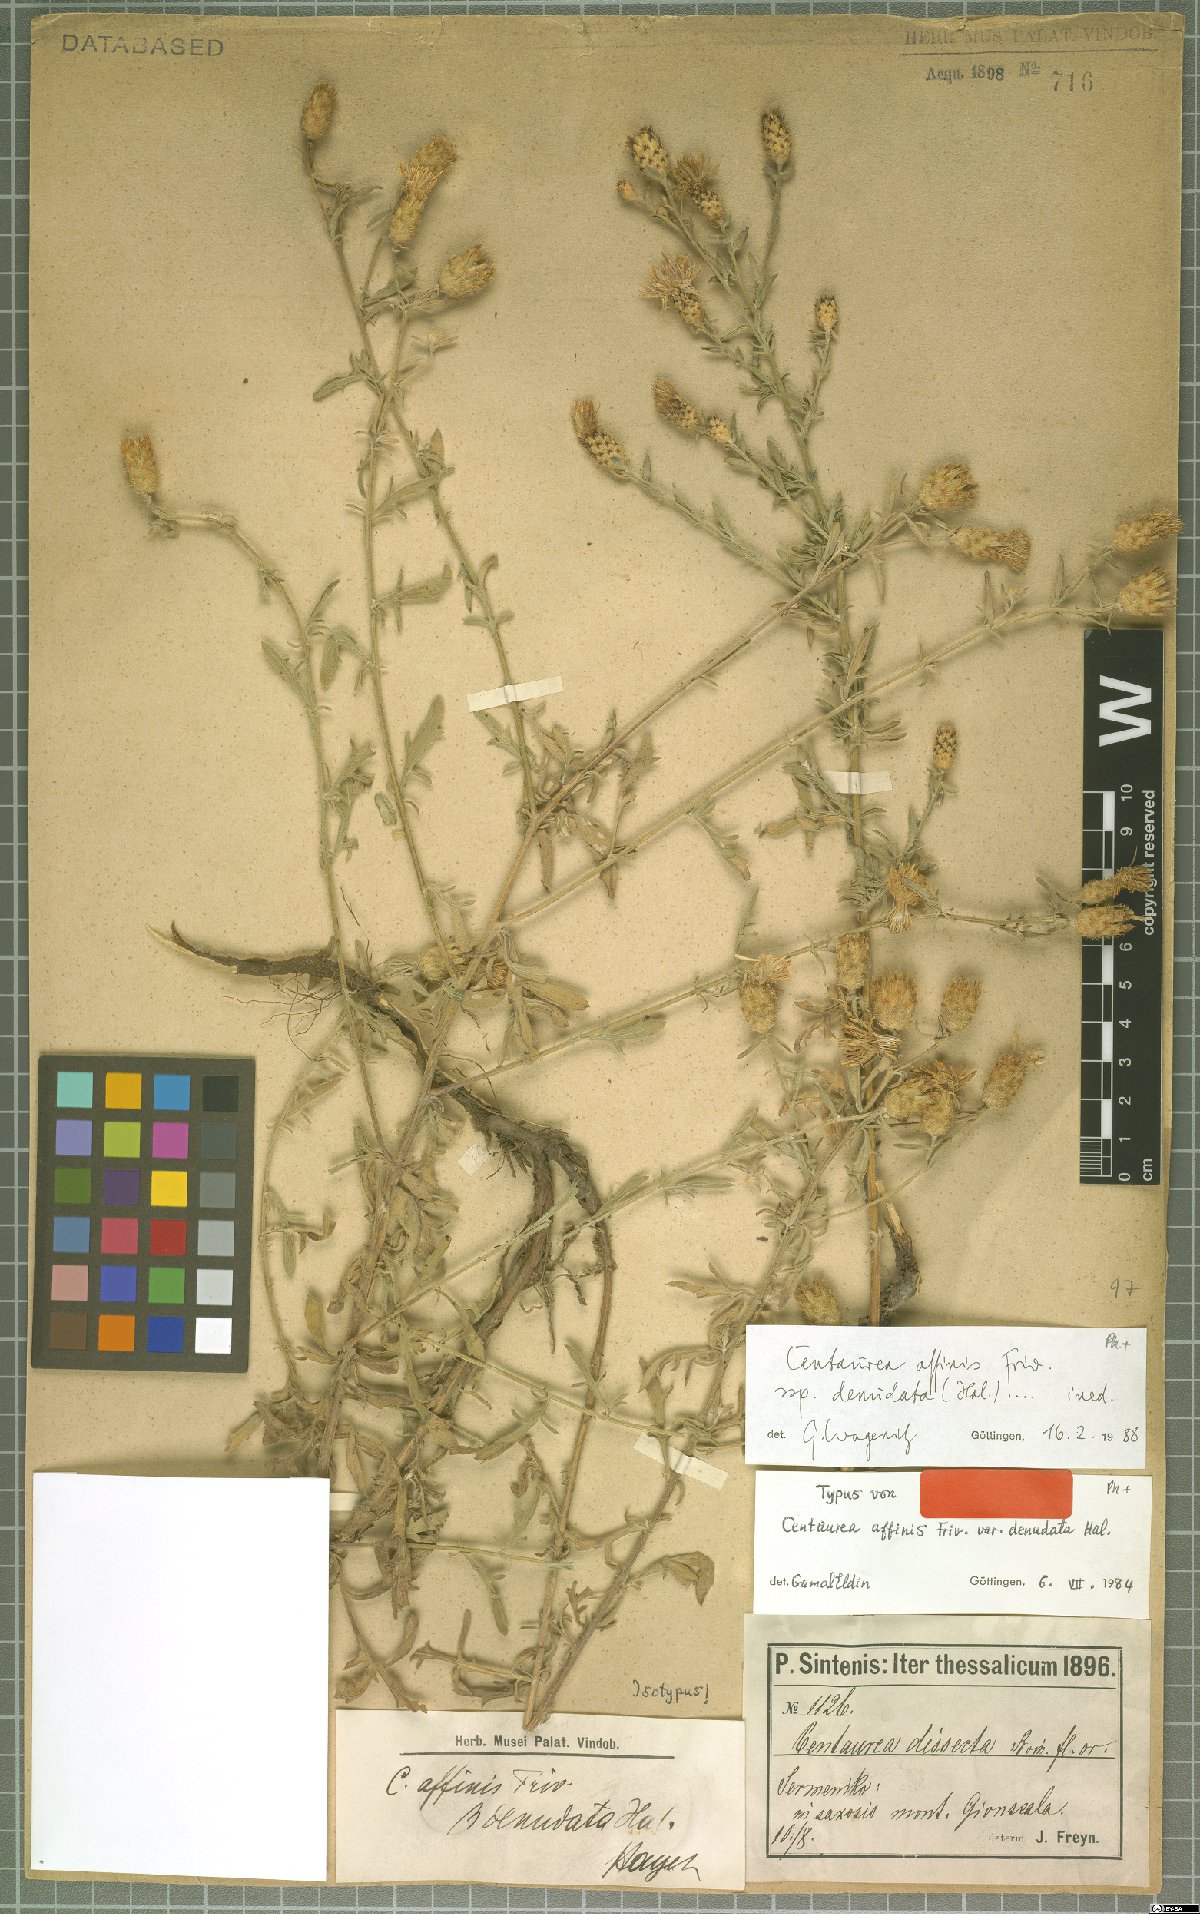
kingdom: Plantae
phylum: Tracheophyta
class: Magnoliopsida
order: Asterales
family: Asteraceae
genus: Centaurea
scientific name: Centaurea affinis
